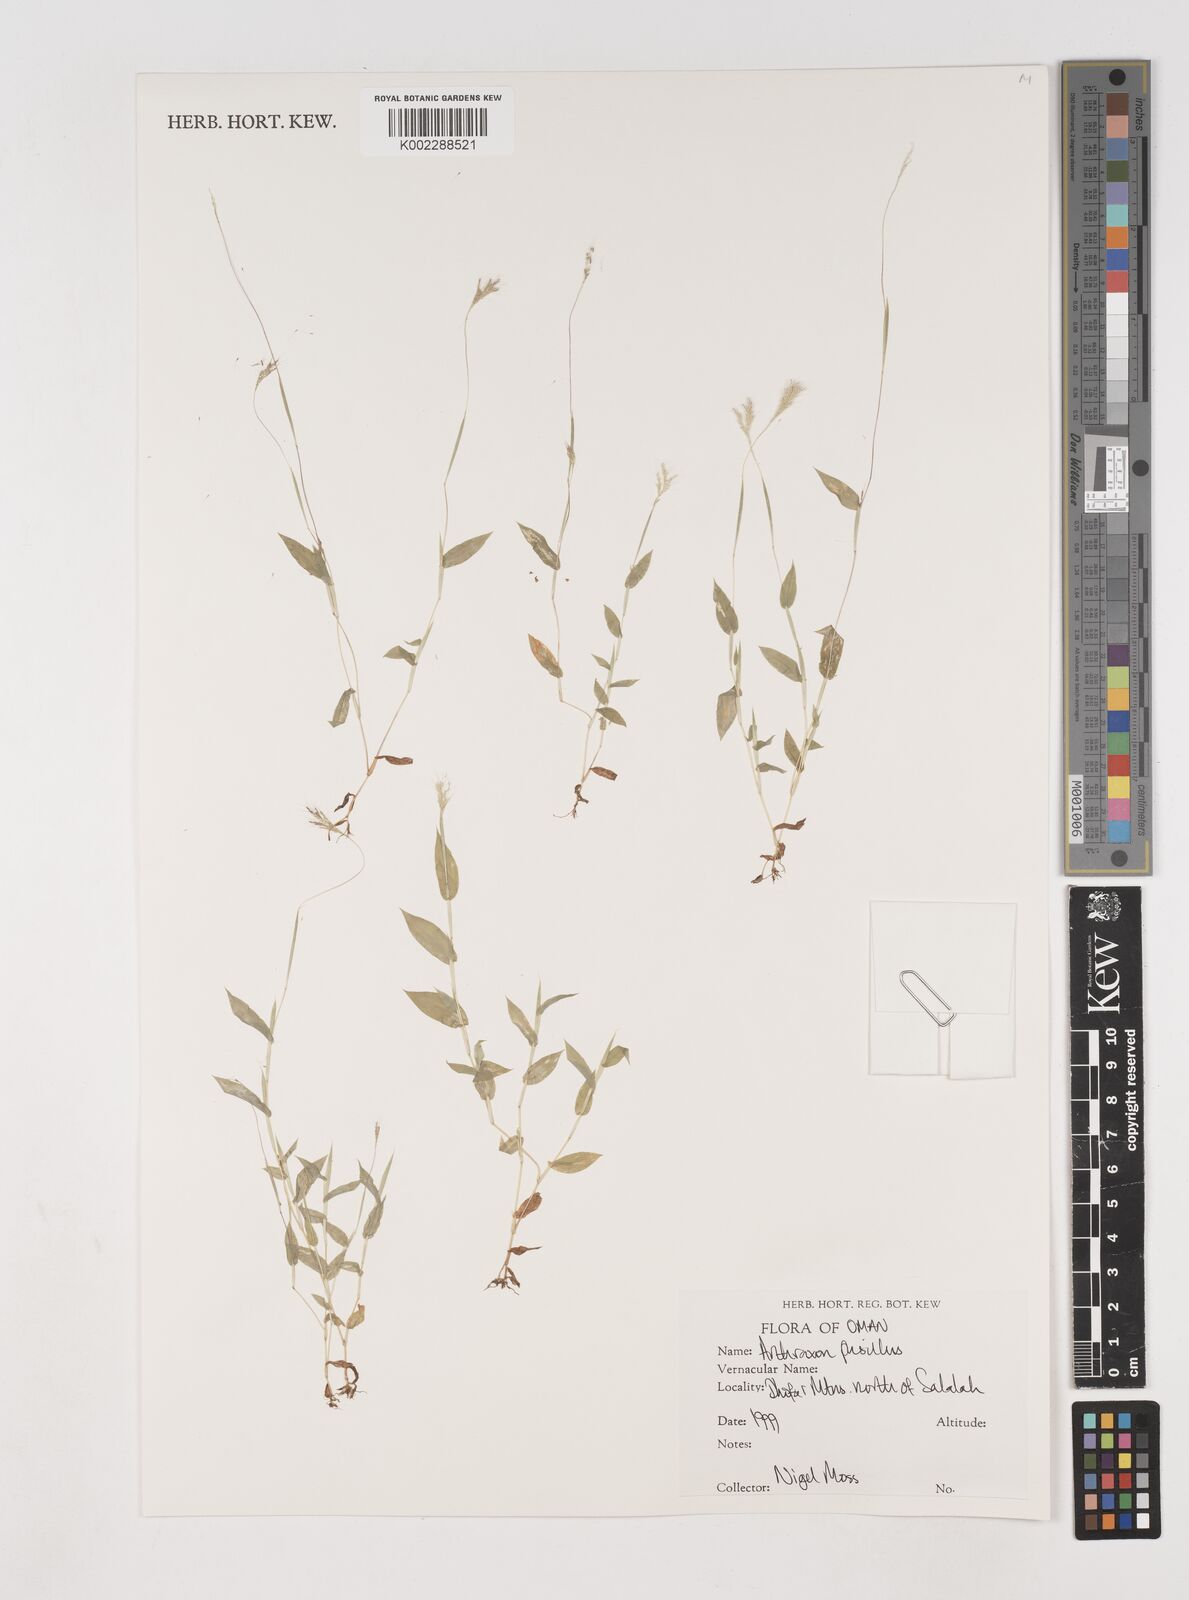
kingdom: Plantae
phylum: Tracheophyta
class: Liliopsida
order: Poales
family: Poaceae
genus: Arthraxon
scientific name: Arthraxon junnarensis
